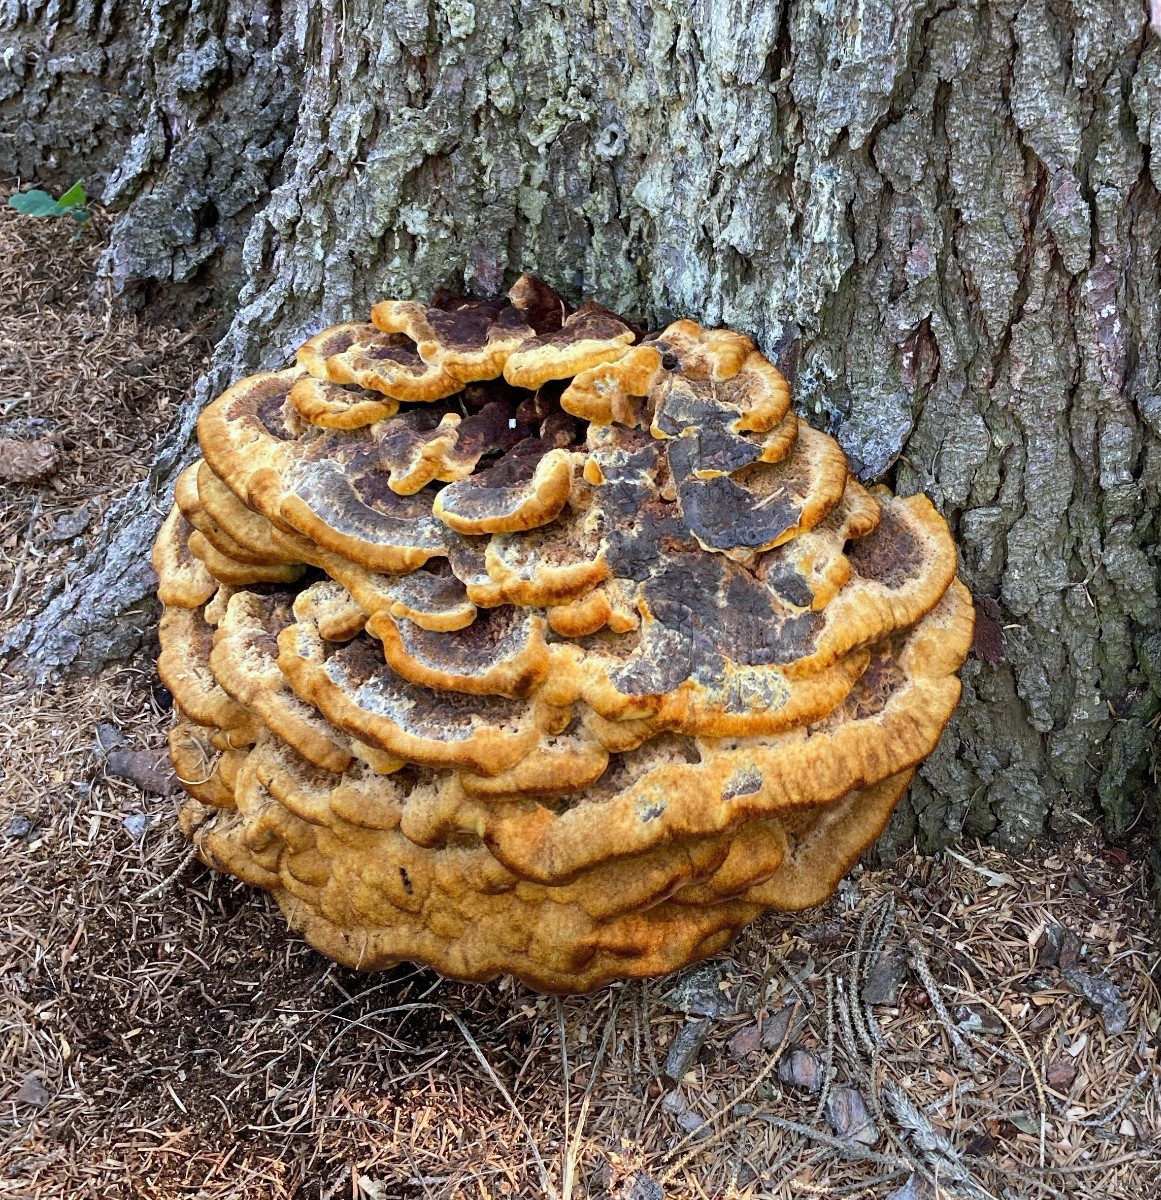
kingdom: Fungi
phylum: Basidiomycota
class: Agaricomycetes
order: Polyporales
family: Laetiporaceae
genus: Phaeolus
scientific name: Phaeolus schweinitzii
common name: brunporesvamp
